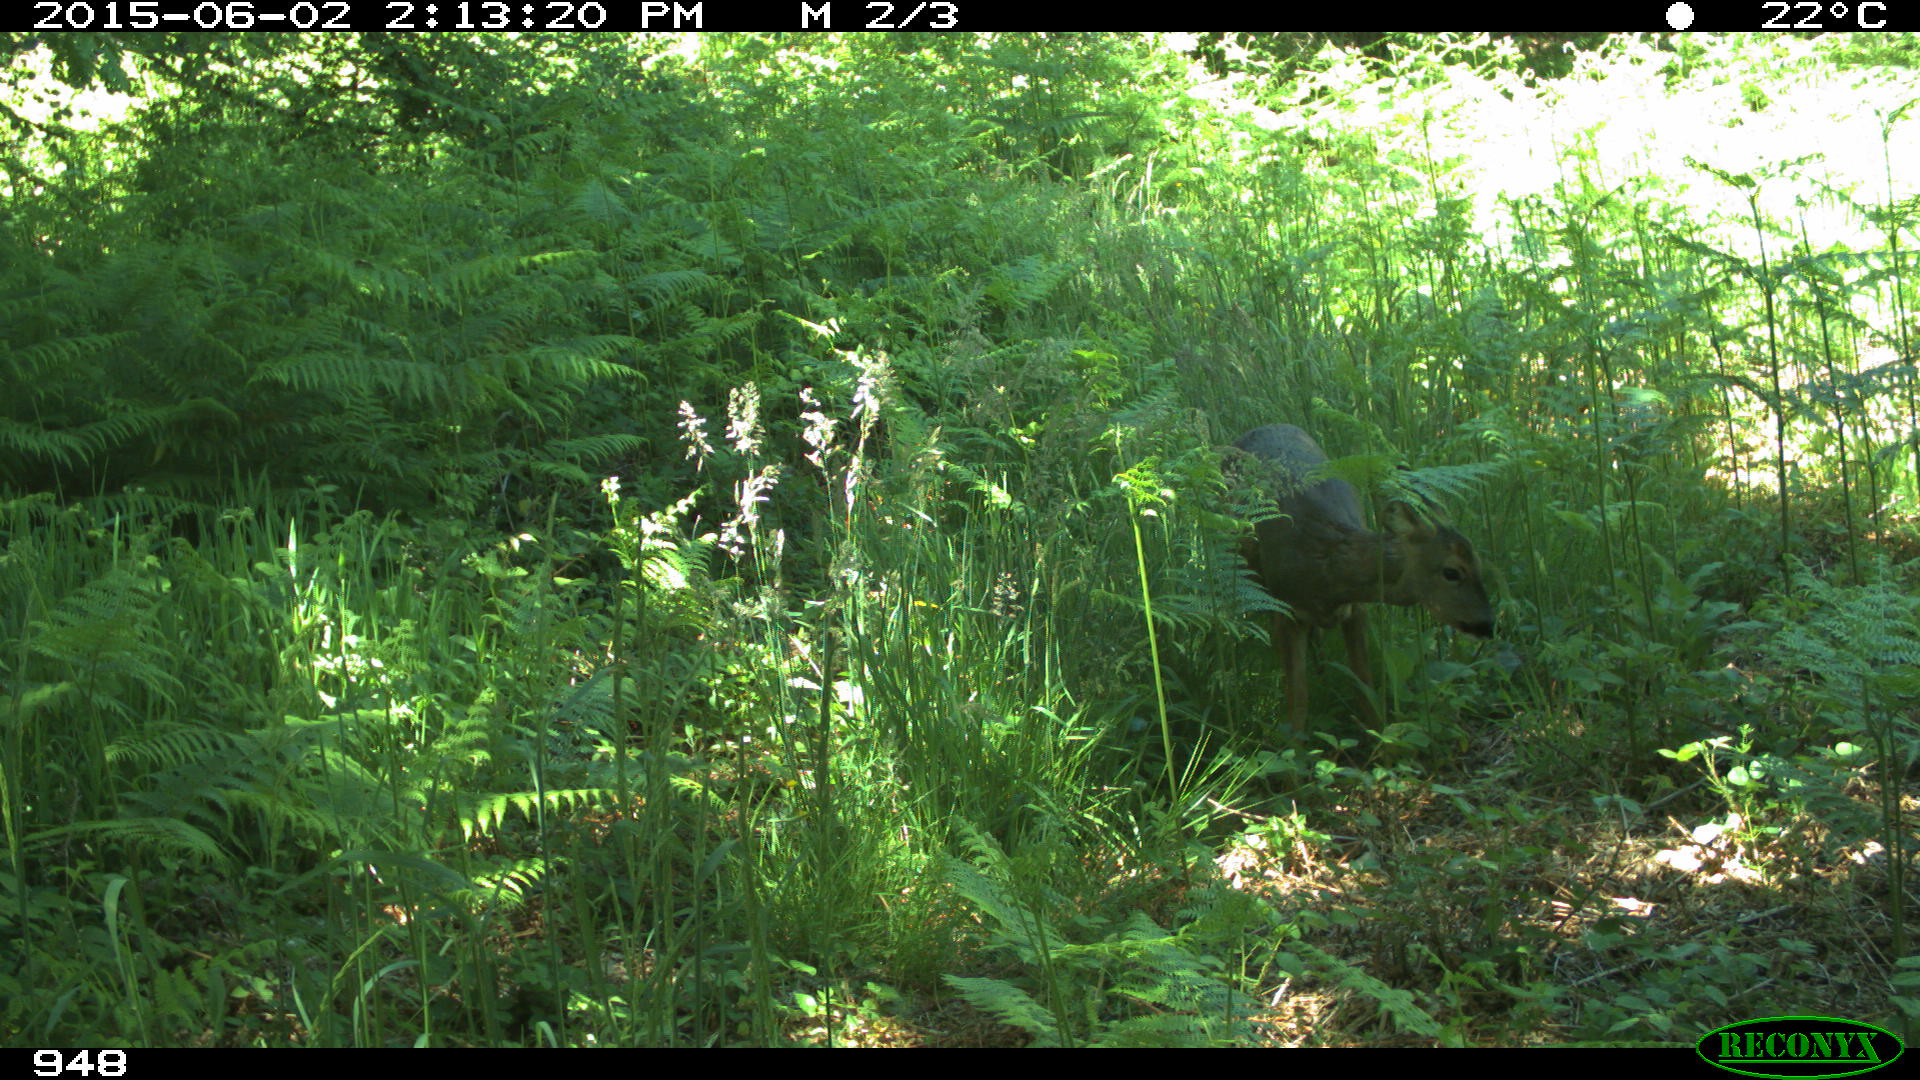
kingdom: Animalia
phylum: Chordata
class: Mammalia
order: Artiodactyla
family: Cervidae
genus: Capreolus
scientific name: Capreolus capreolus
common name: Western roe deer
